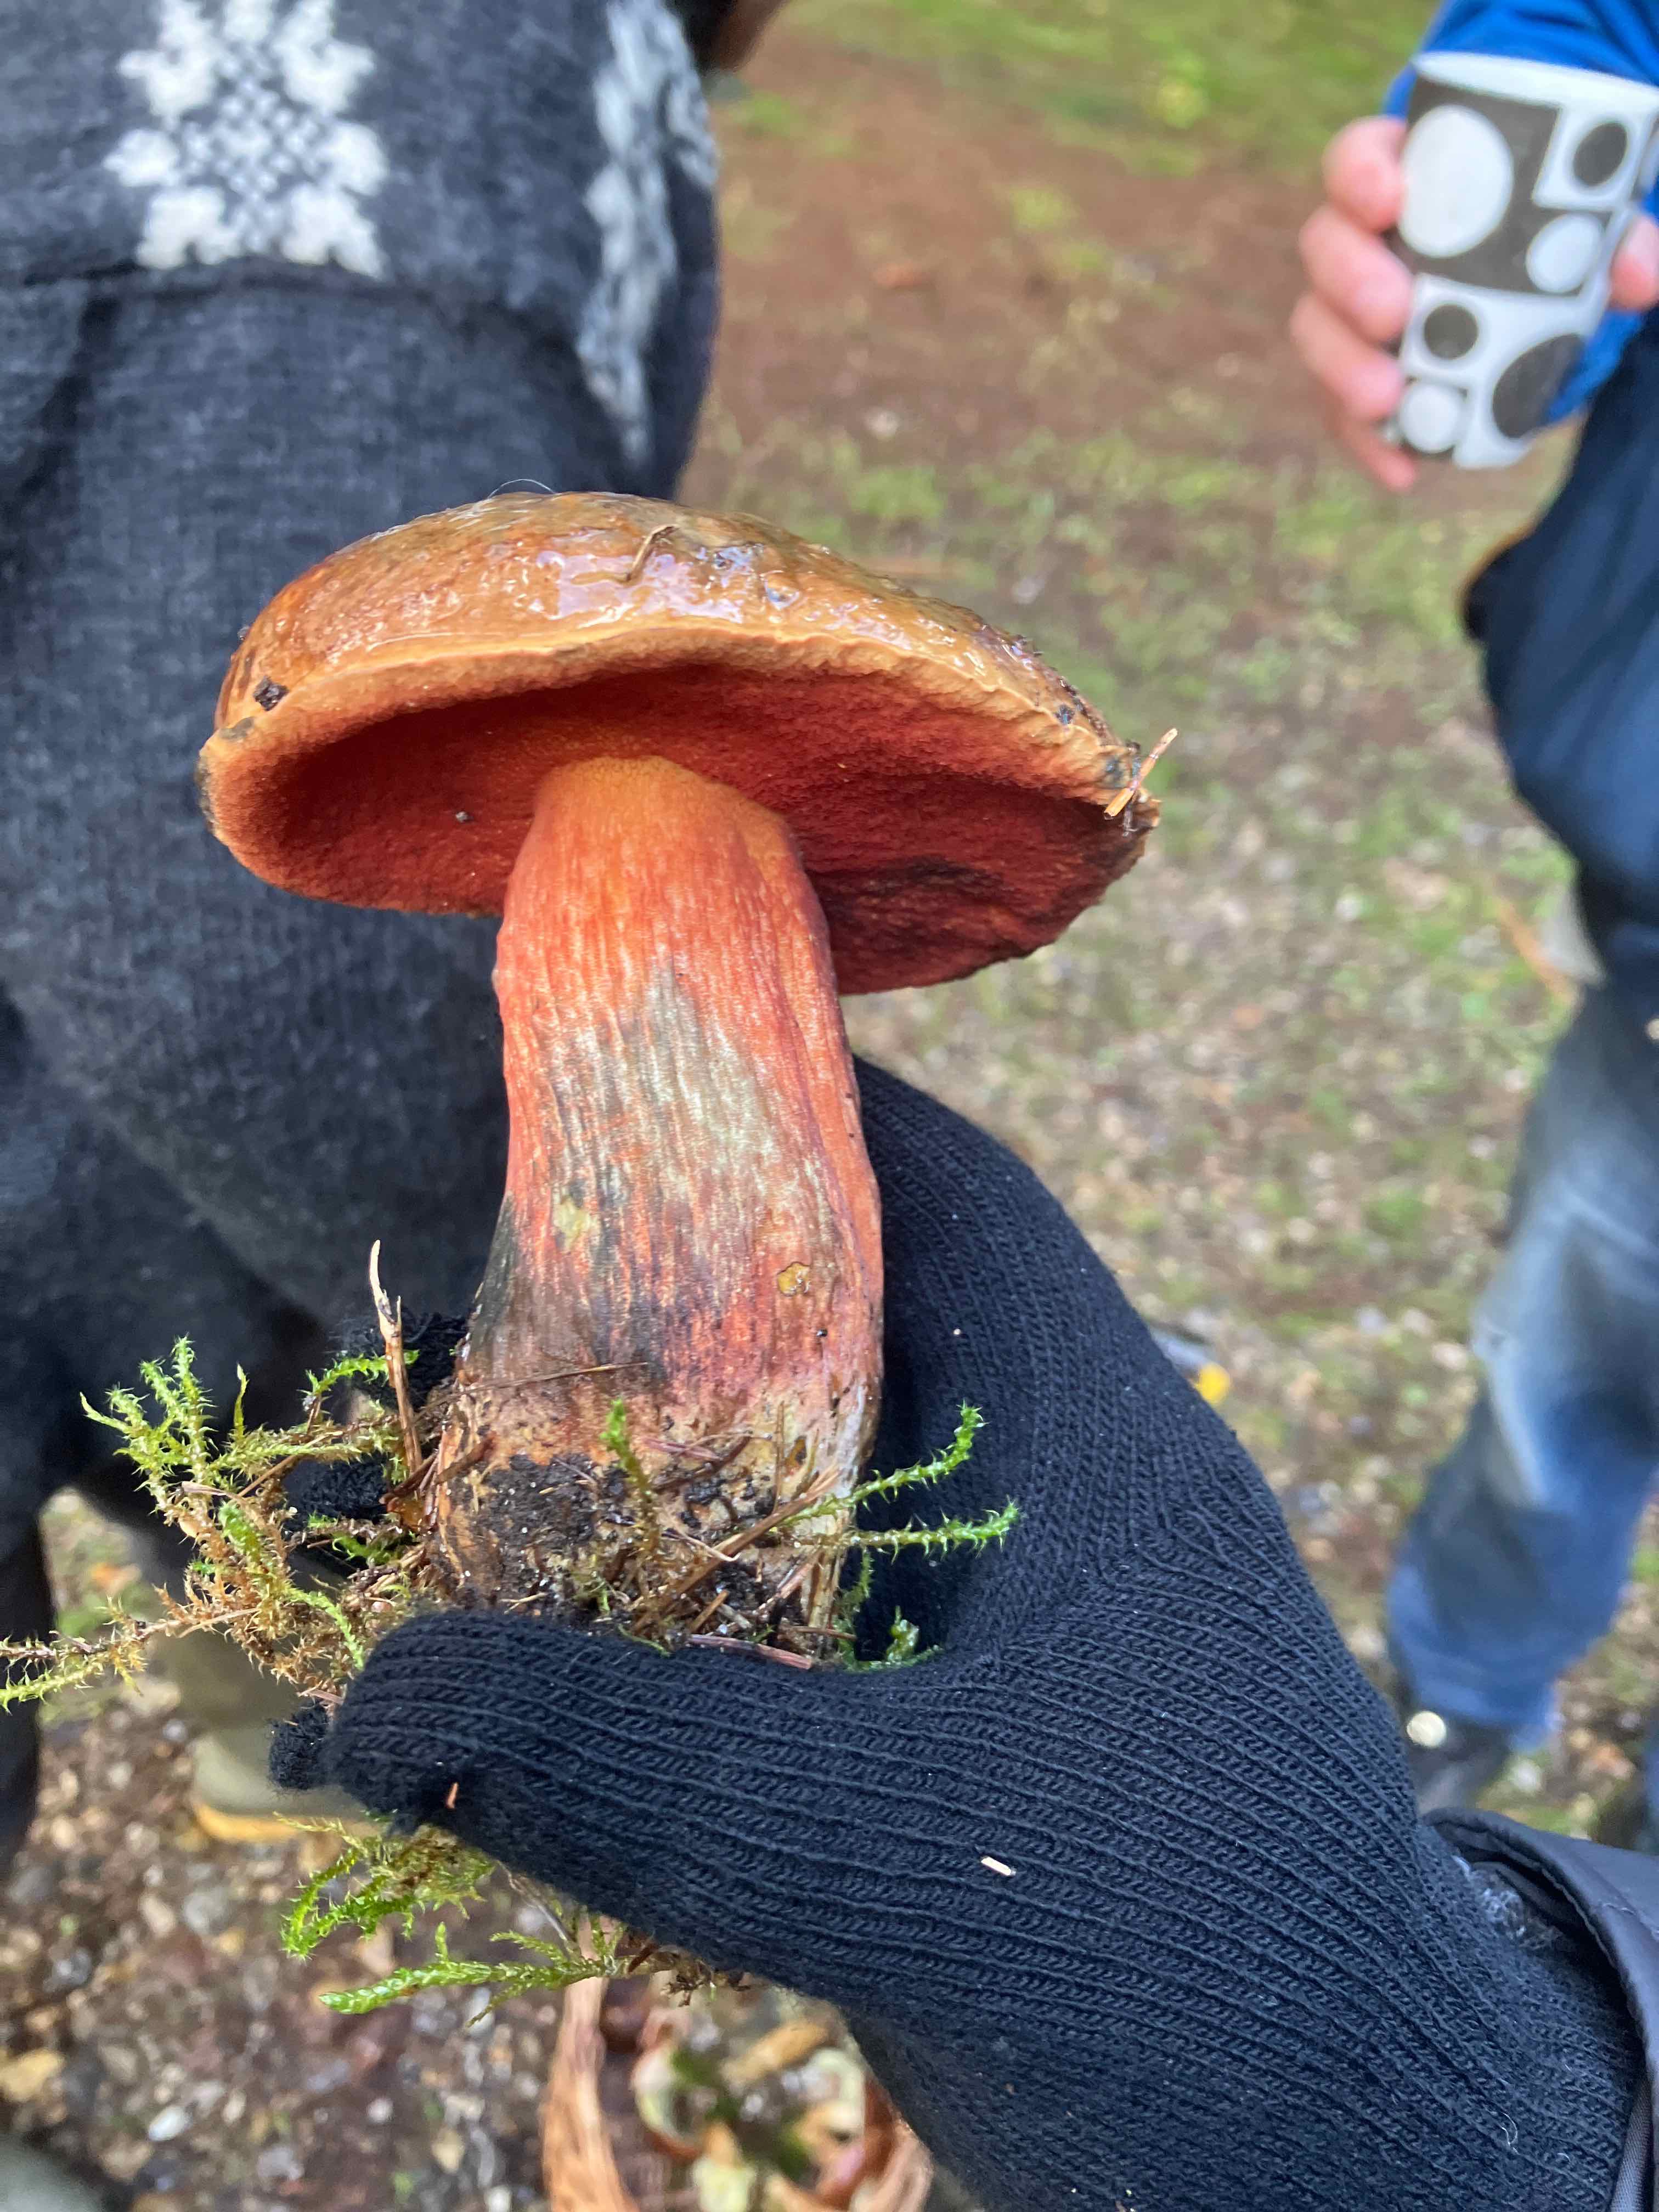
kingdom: Fungi
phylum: Basidiomycota
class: Agaricomycetes
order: Boletales
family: Boletaceae
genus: Neoboletus
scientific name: Neoboletus erythropus
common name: punktstokket indigorørhat
